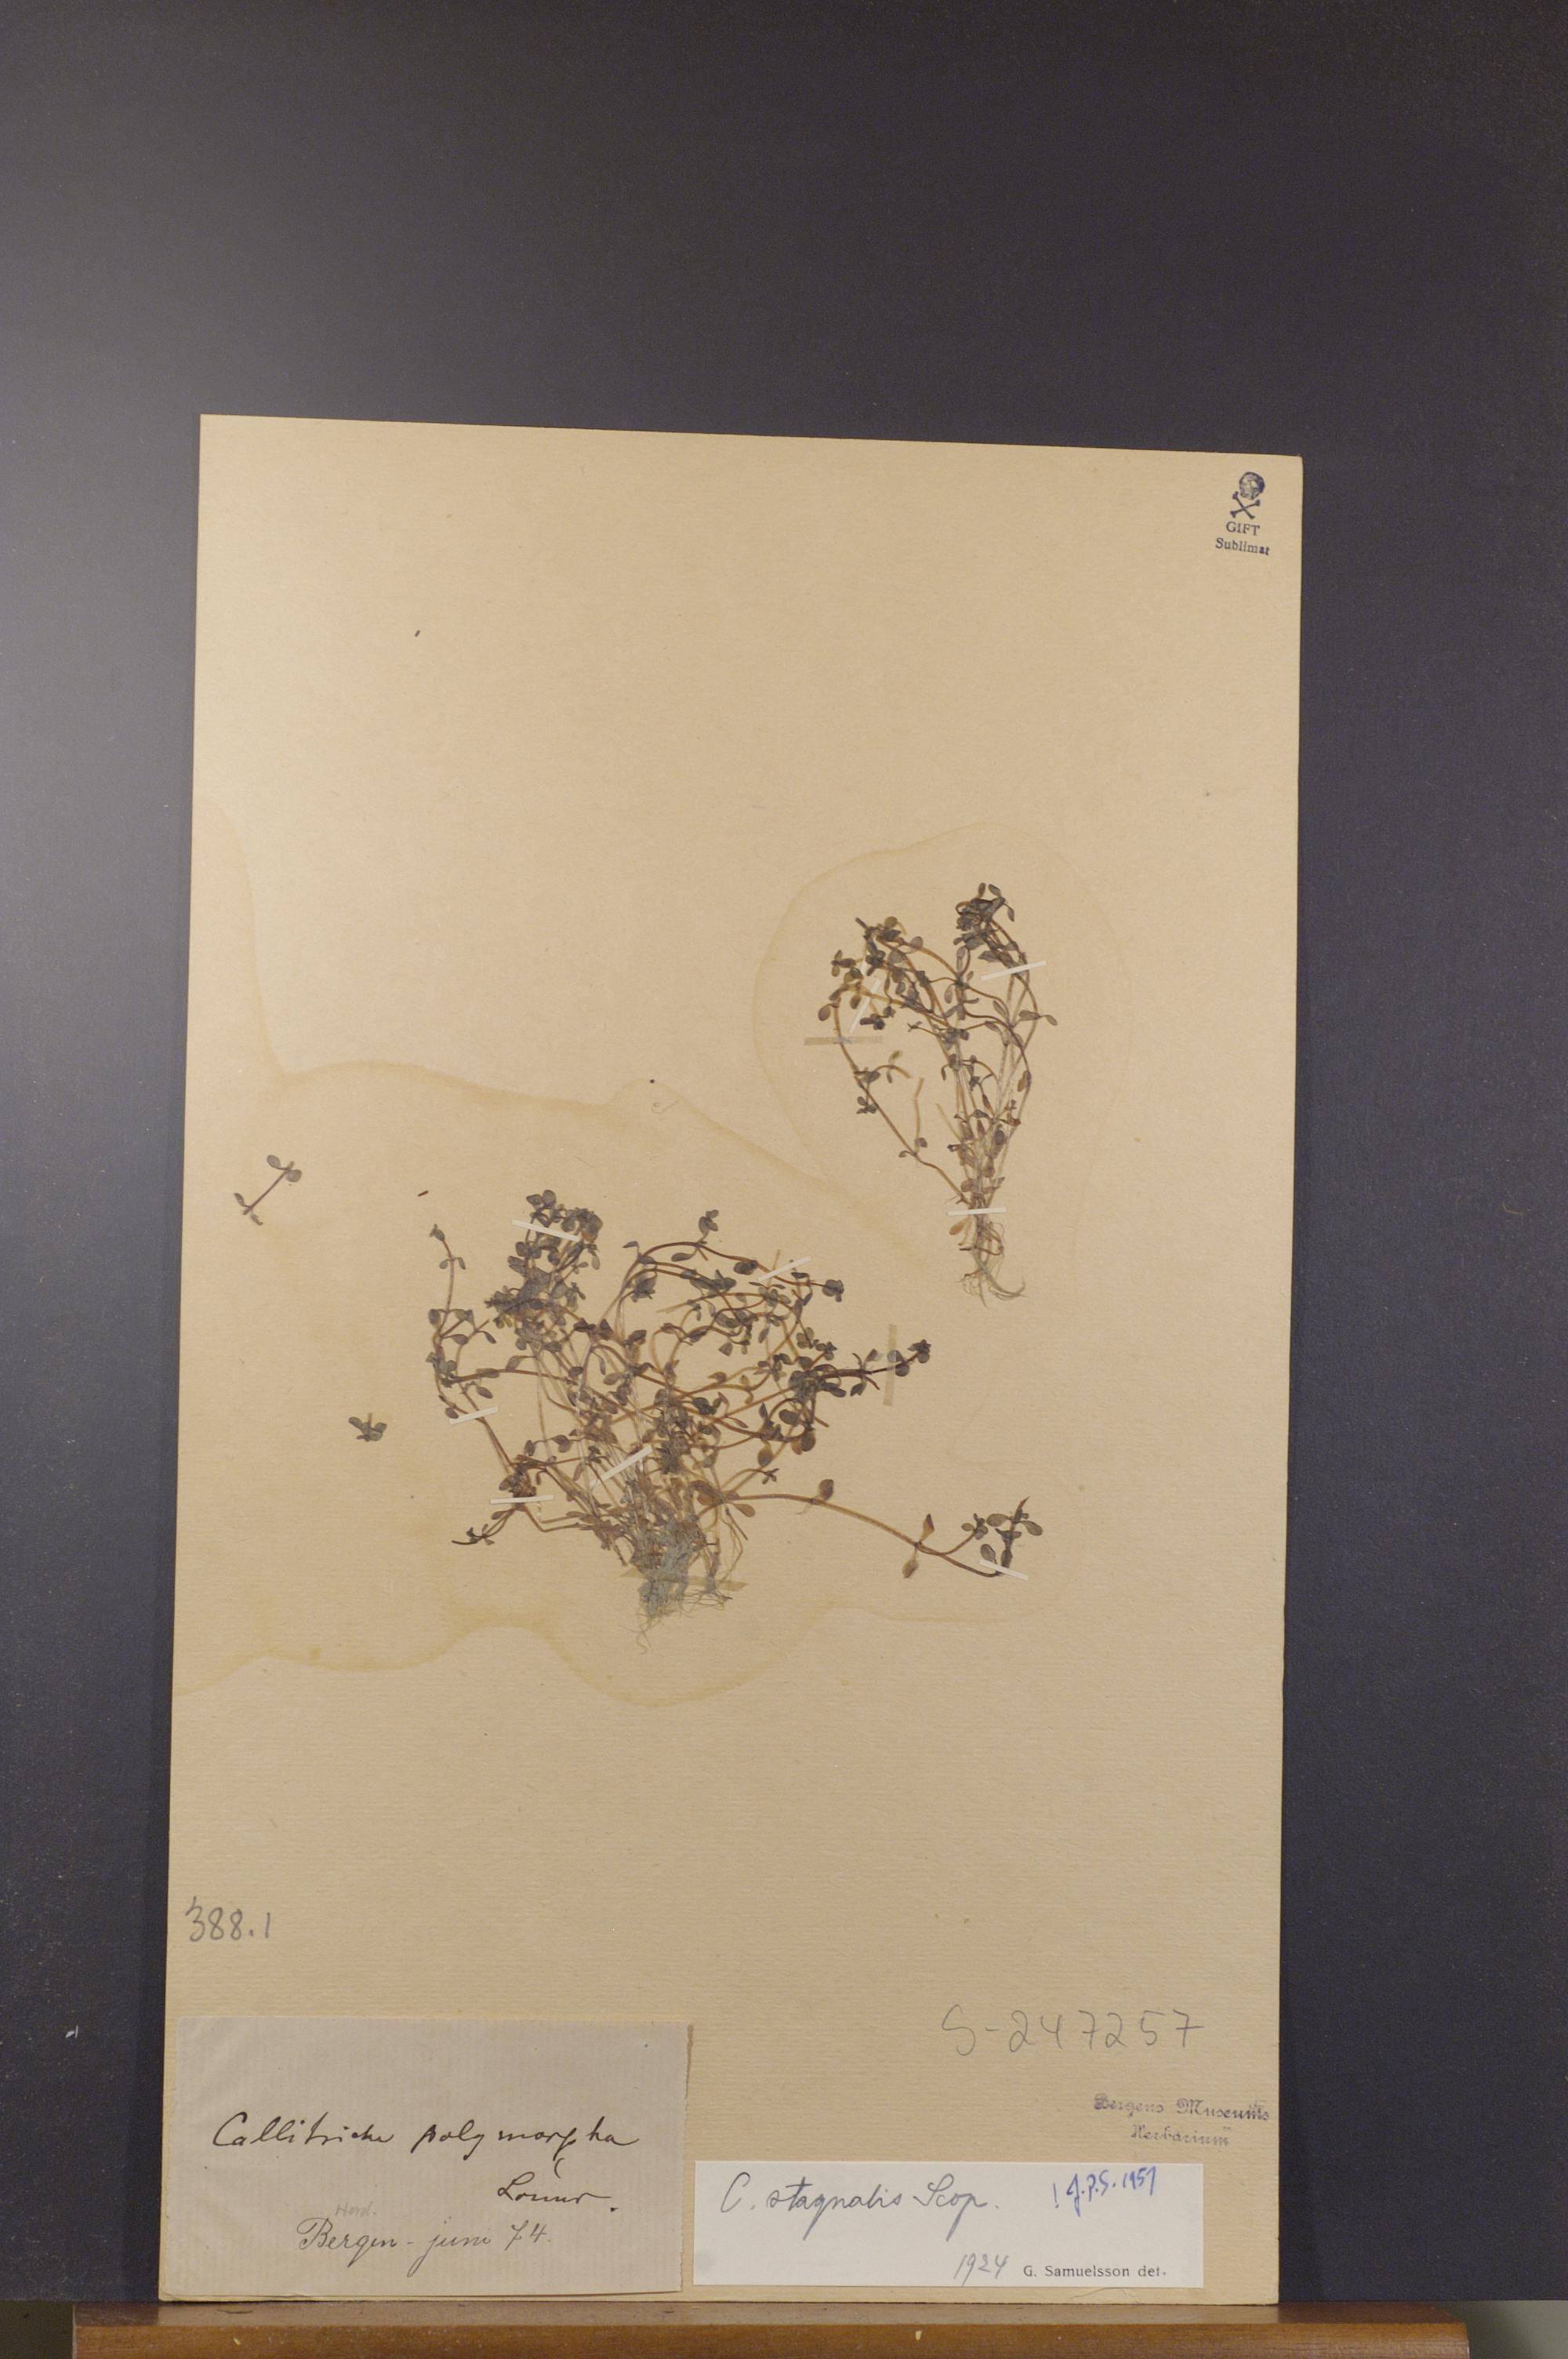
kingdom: Plantae
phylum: Tracheophyta
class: Magnoliopsida
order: Lamiales
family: Plantaginaceae
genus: Callitriche
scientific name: Callitriche stagnalis
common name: Common water-starwort
